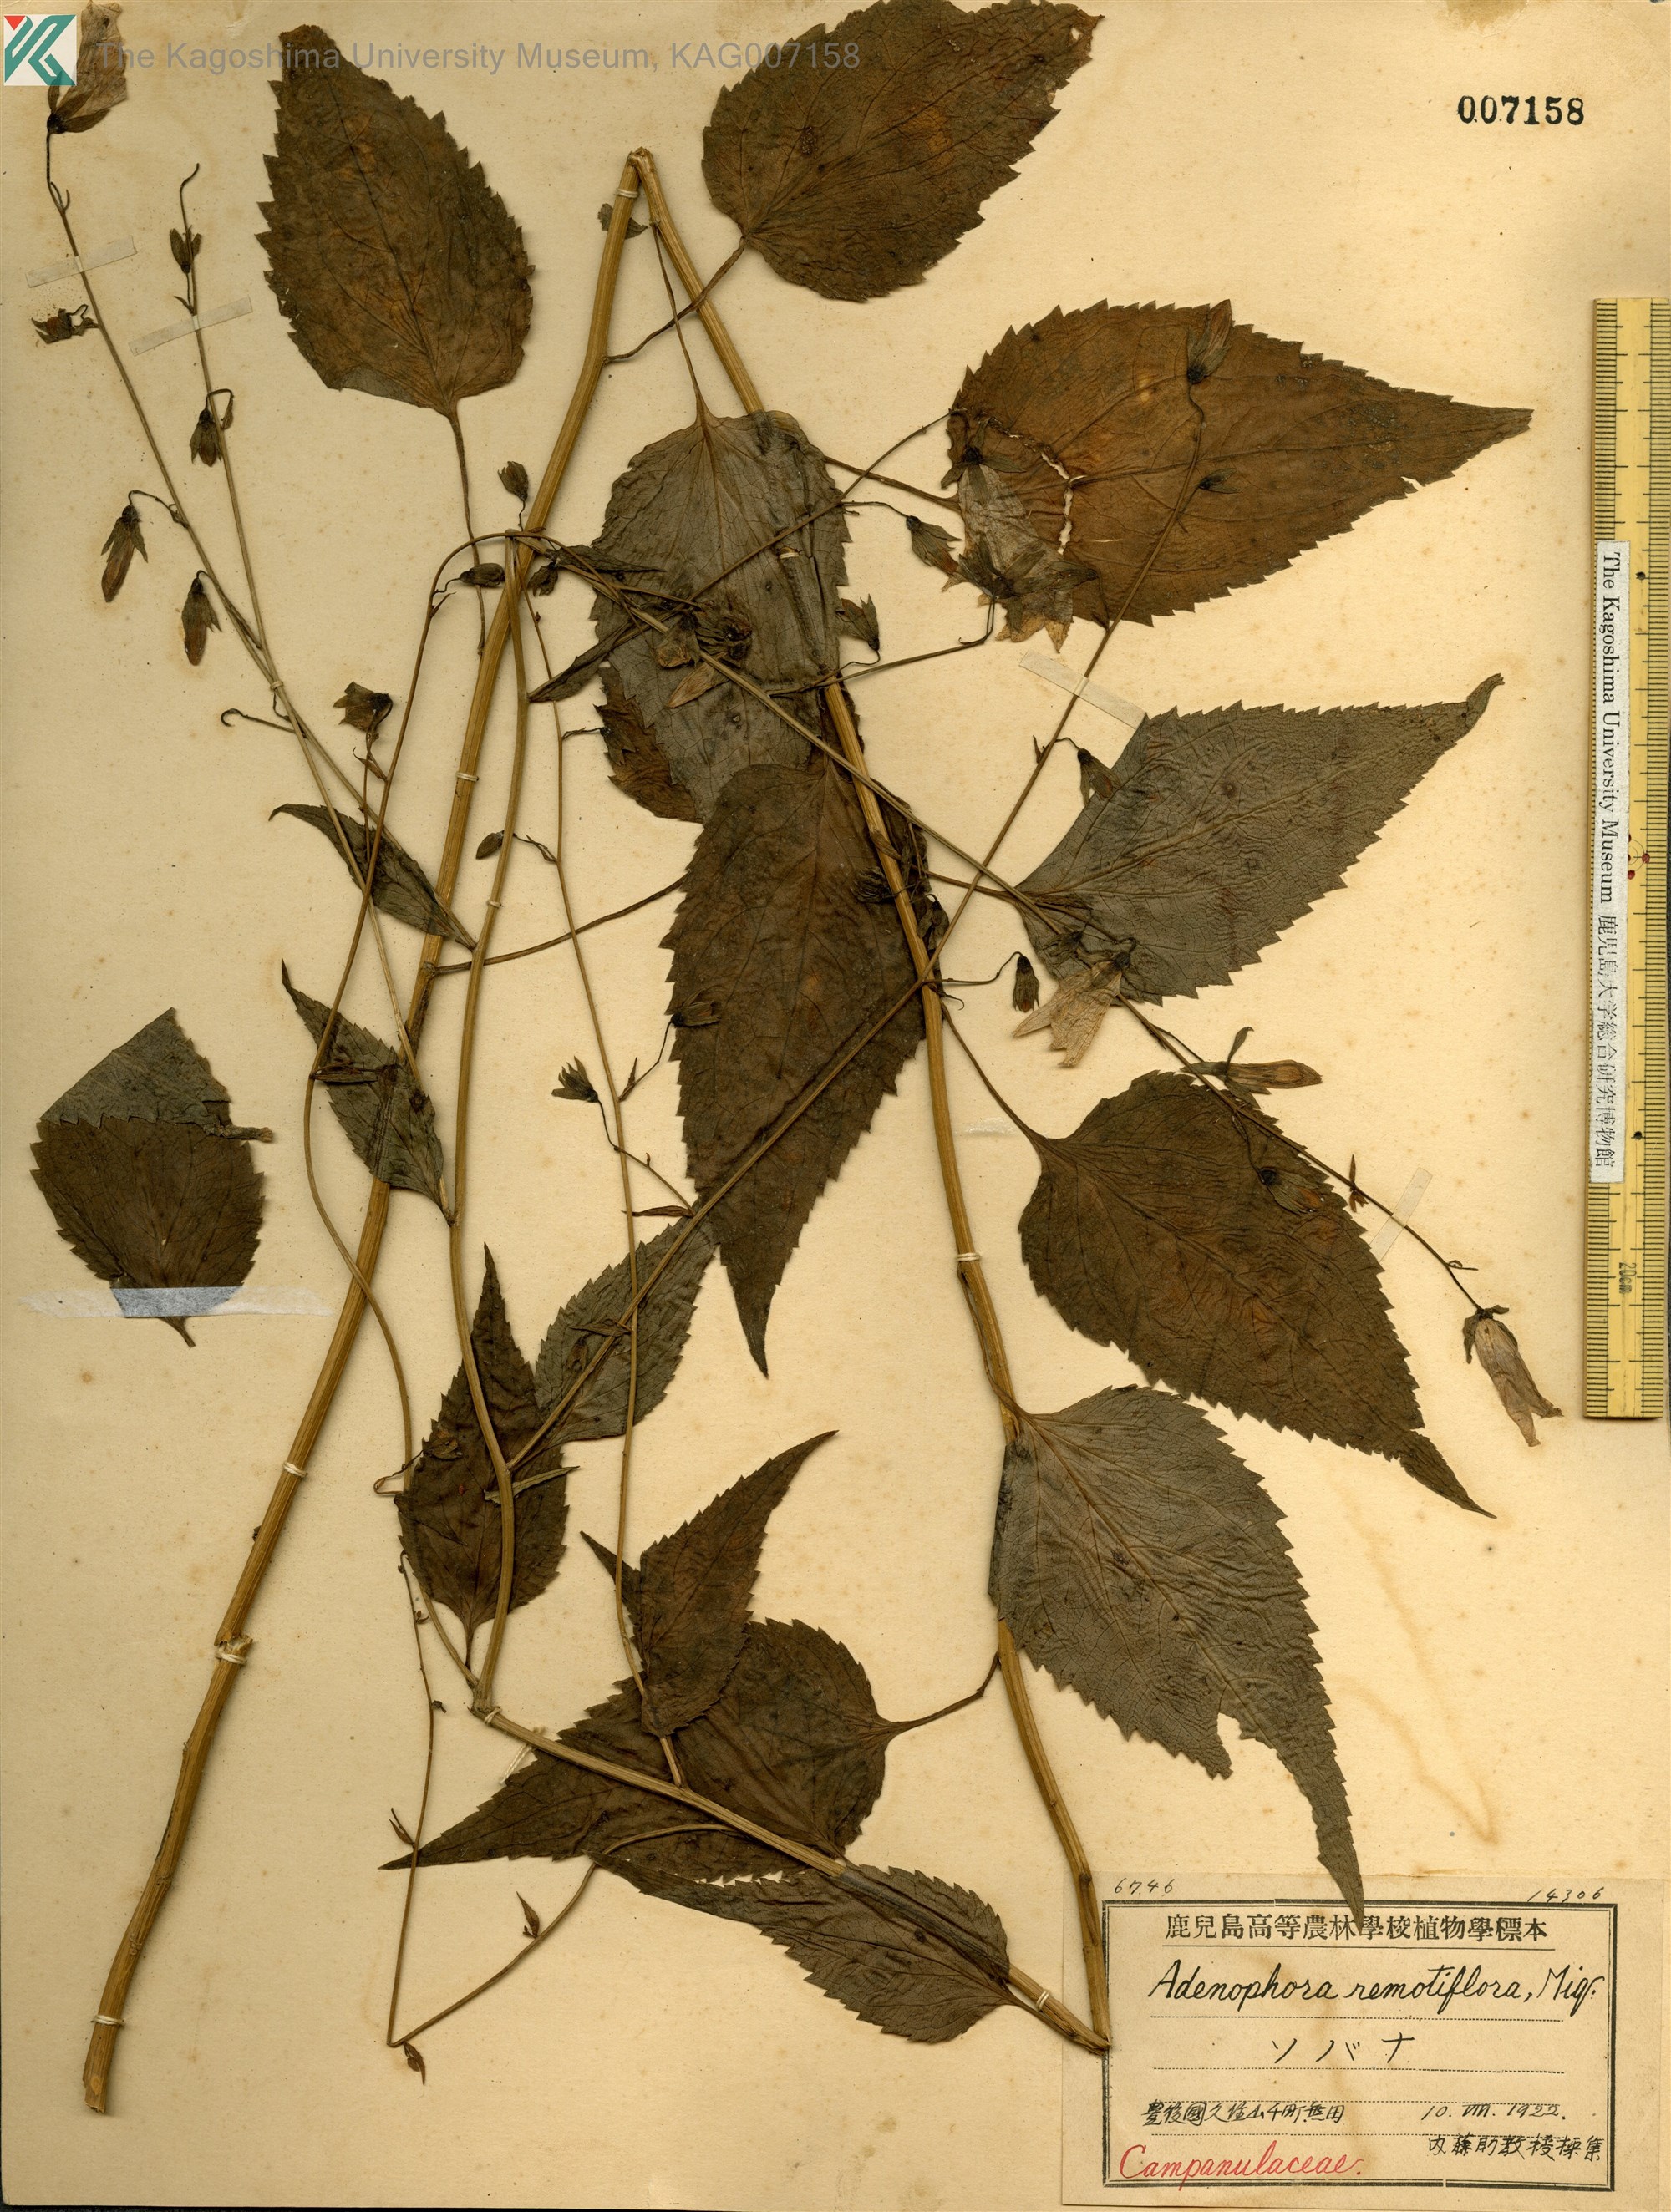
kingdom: Plantae
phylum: Tracheophyta
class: Magnoliopsida
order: Asterales
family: Campanulaceae
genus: Adenophora
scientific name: Adenophora remotiflora
